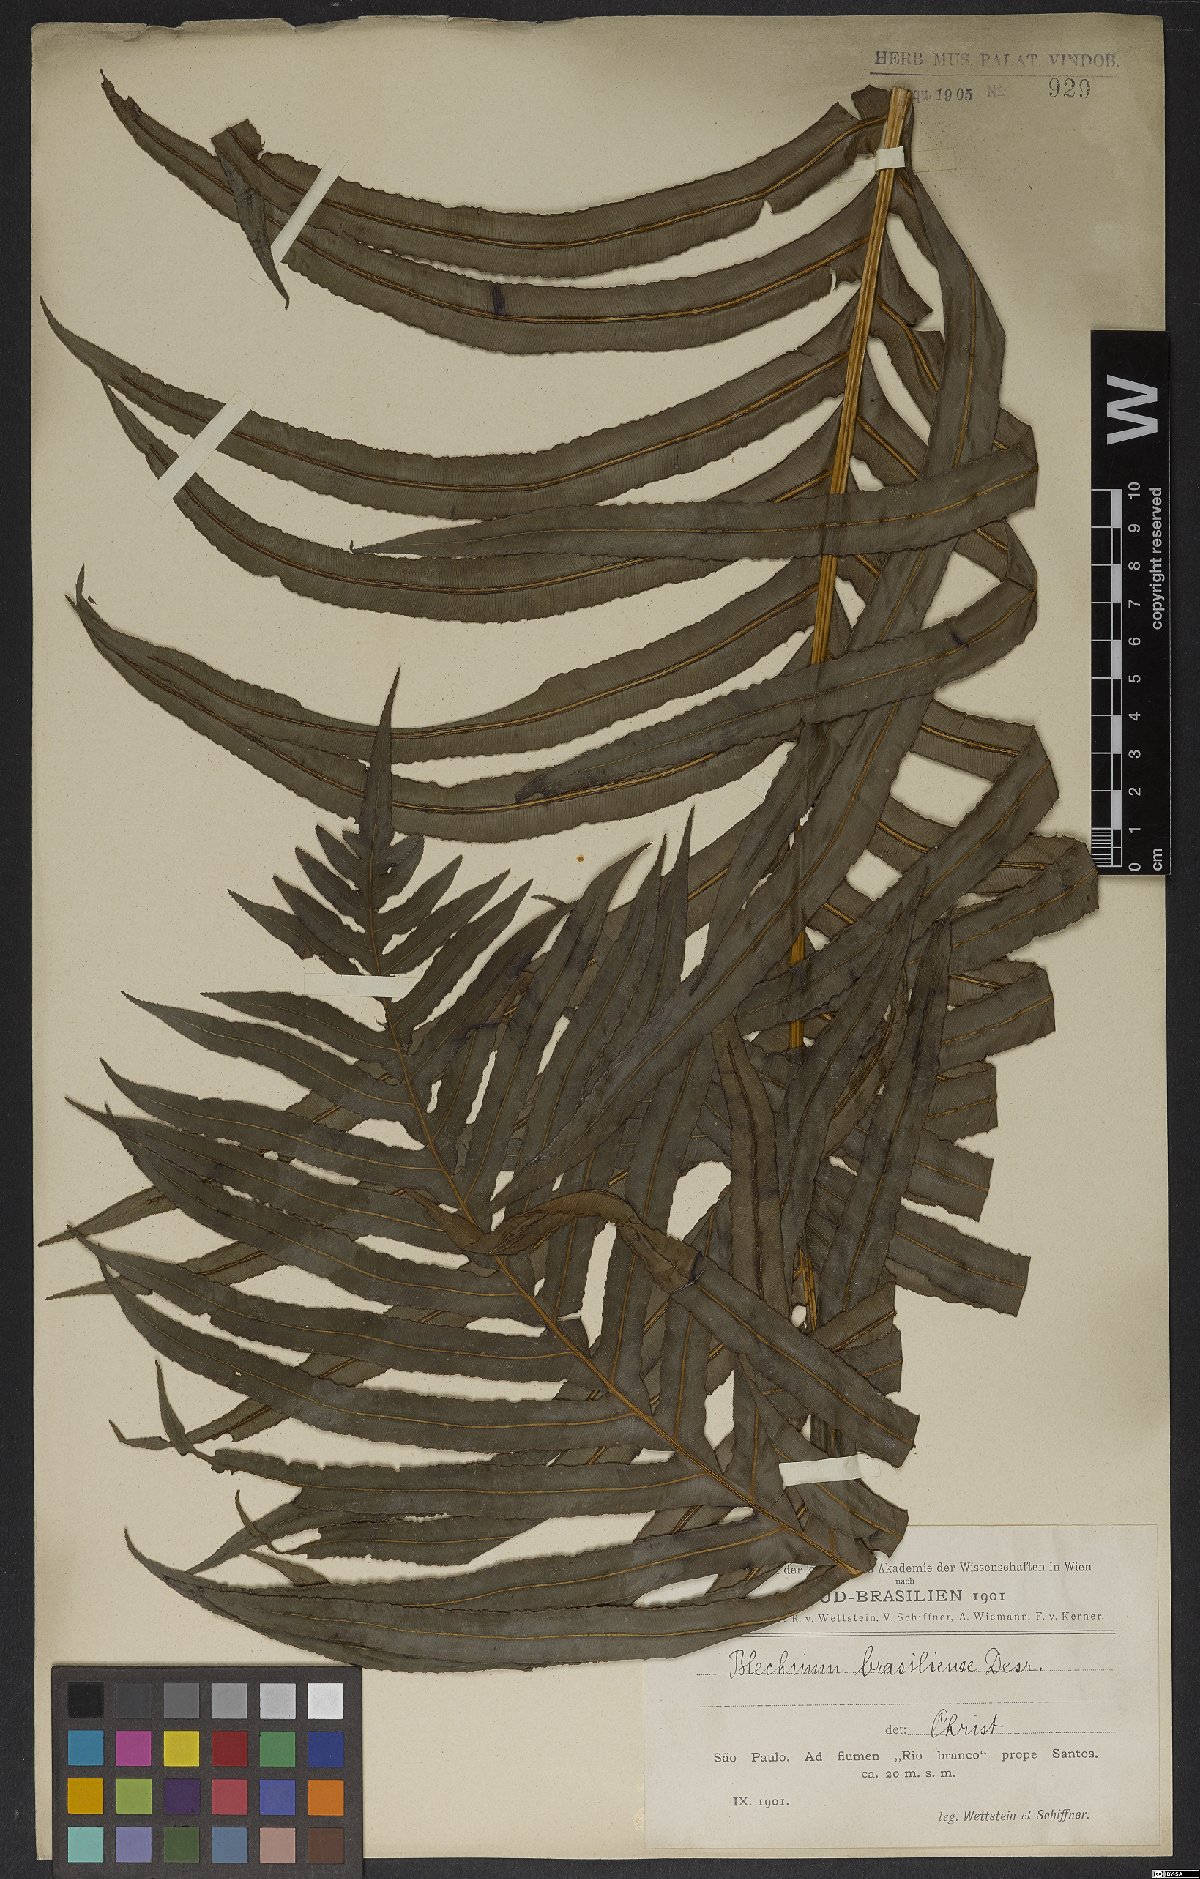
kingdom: Plantae
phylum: Tracheophyta
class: Polypodiopsida
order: Polypodiales
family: Blechnaceae
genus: Neoblechnum
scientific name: Neoblechnum brasiliense
